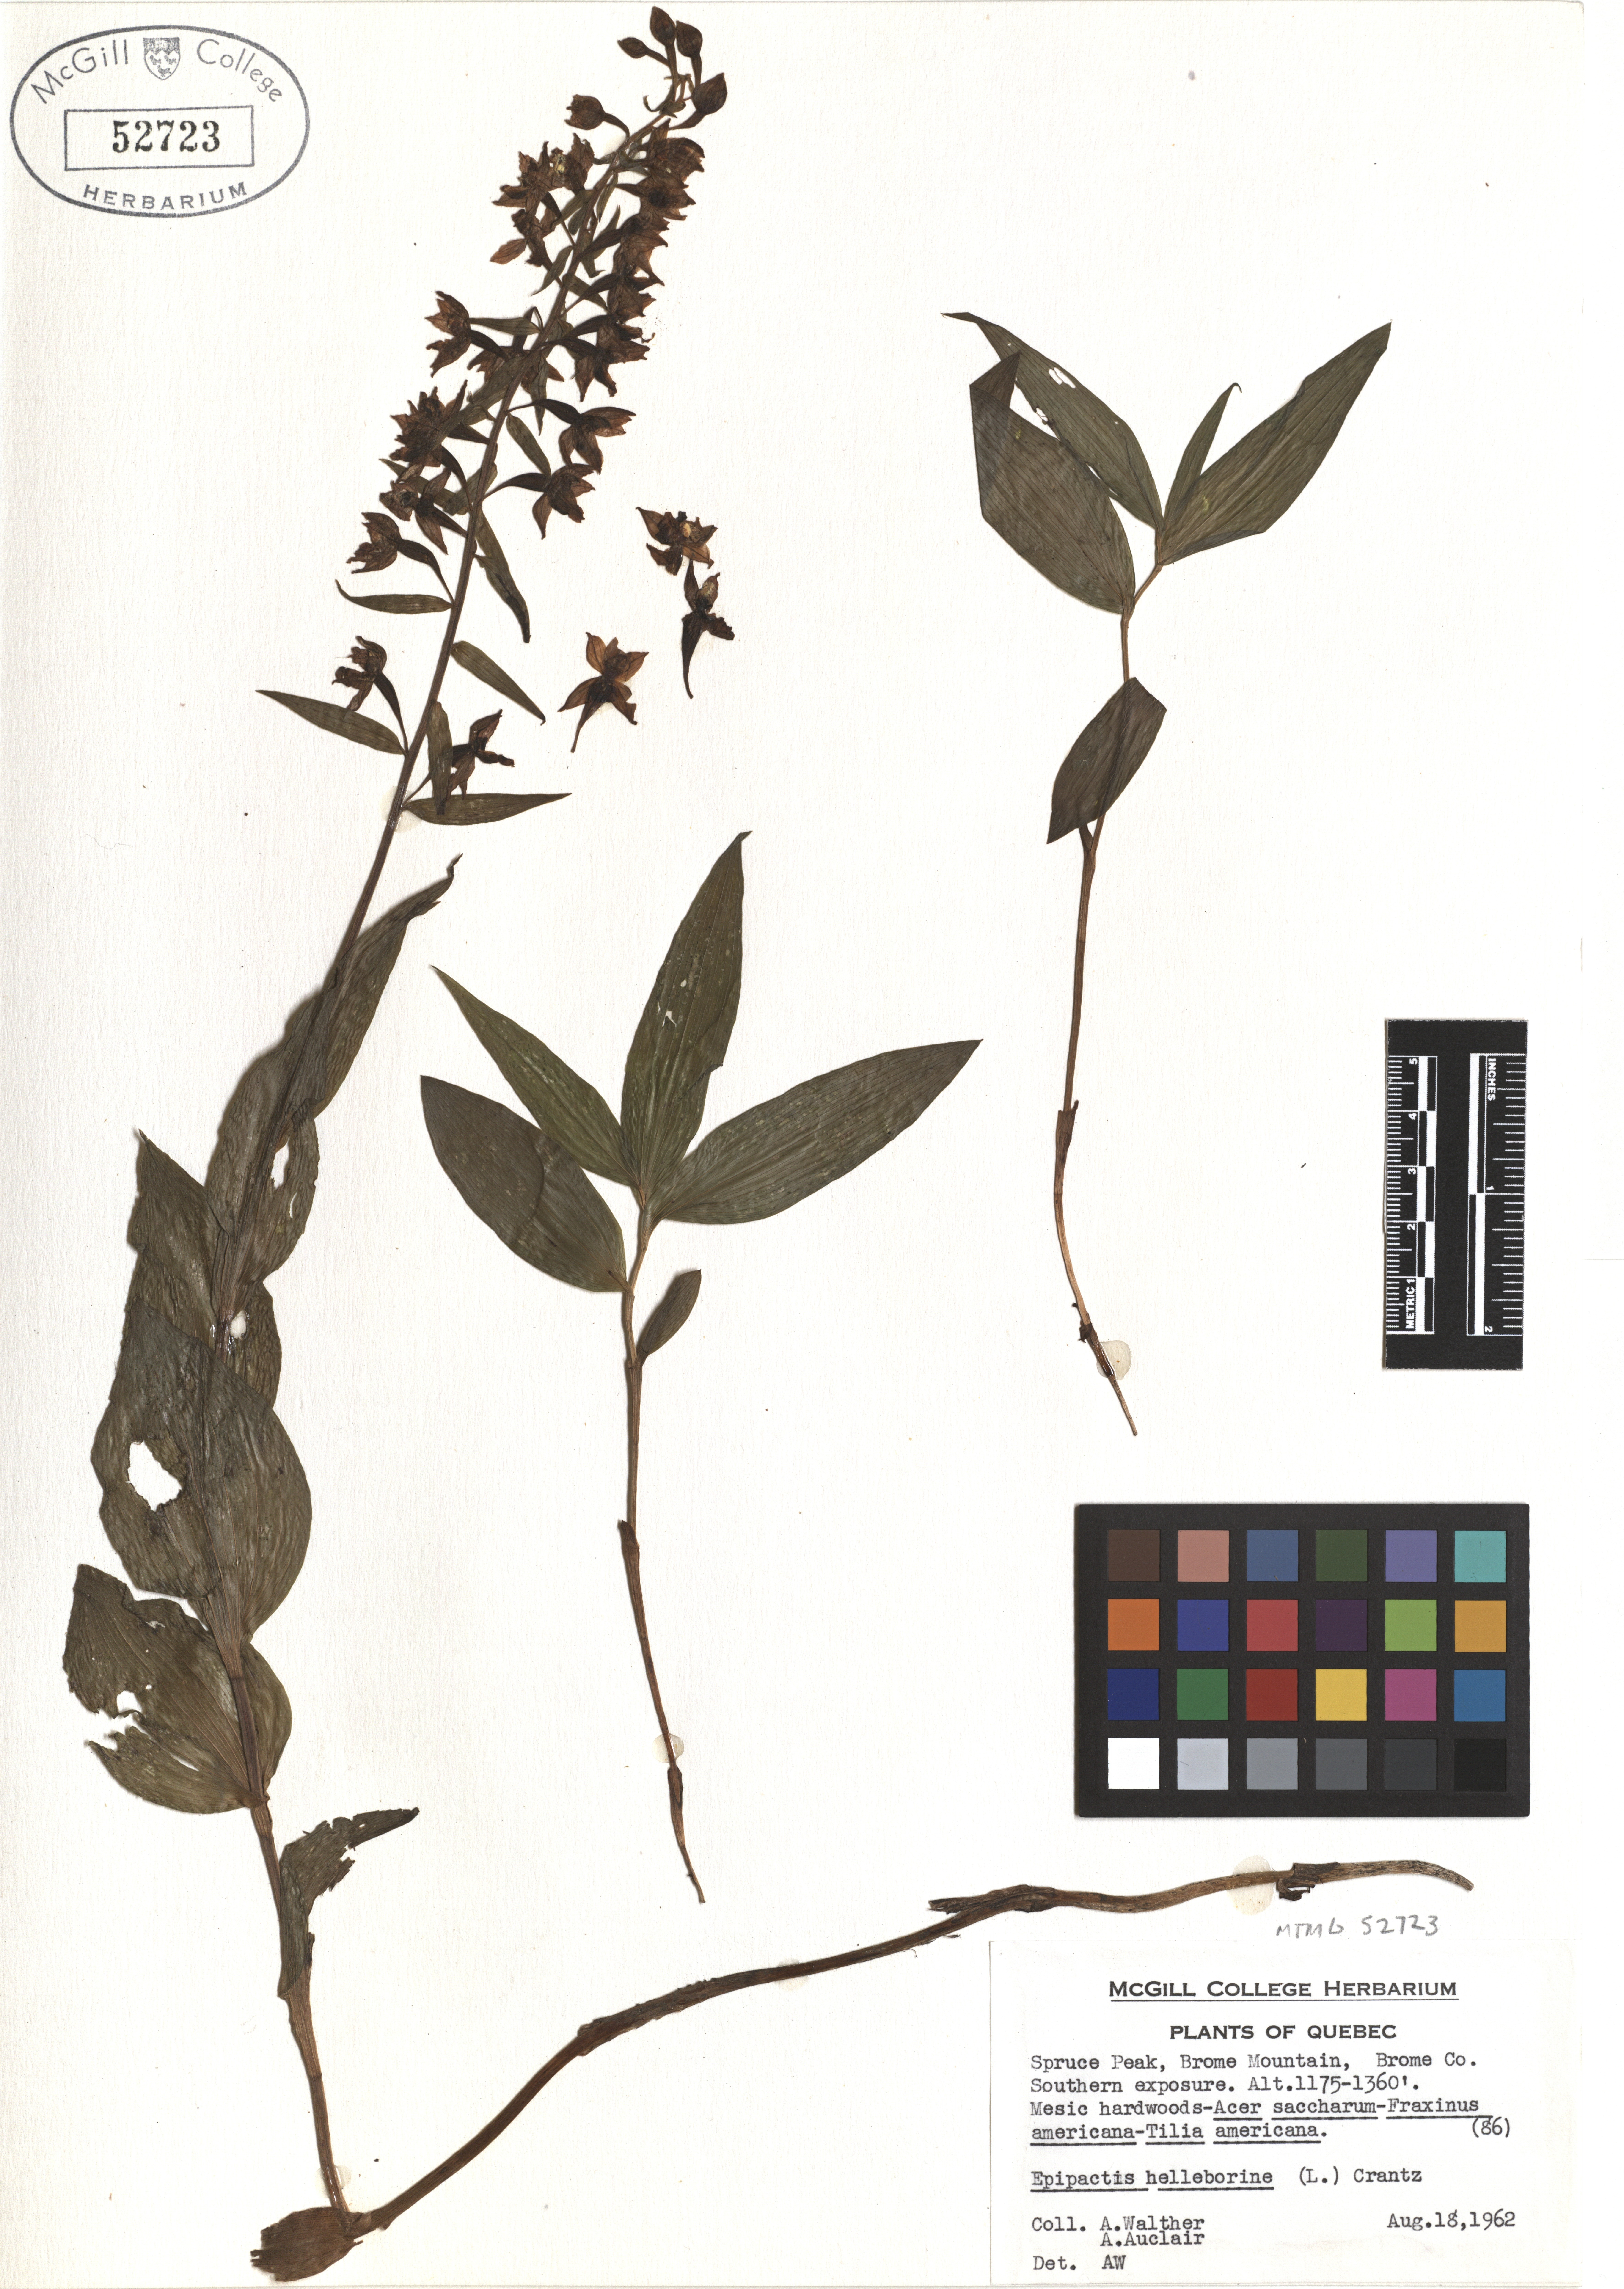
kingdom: Plantae
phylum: Tracheophyta
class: Liliopsida
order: Asparagales
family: Orchidaceae
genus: Epipactis
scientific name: Epipactis helleborine
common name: Broad-leaved helleborine
